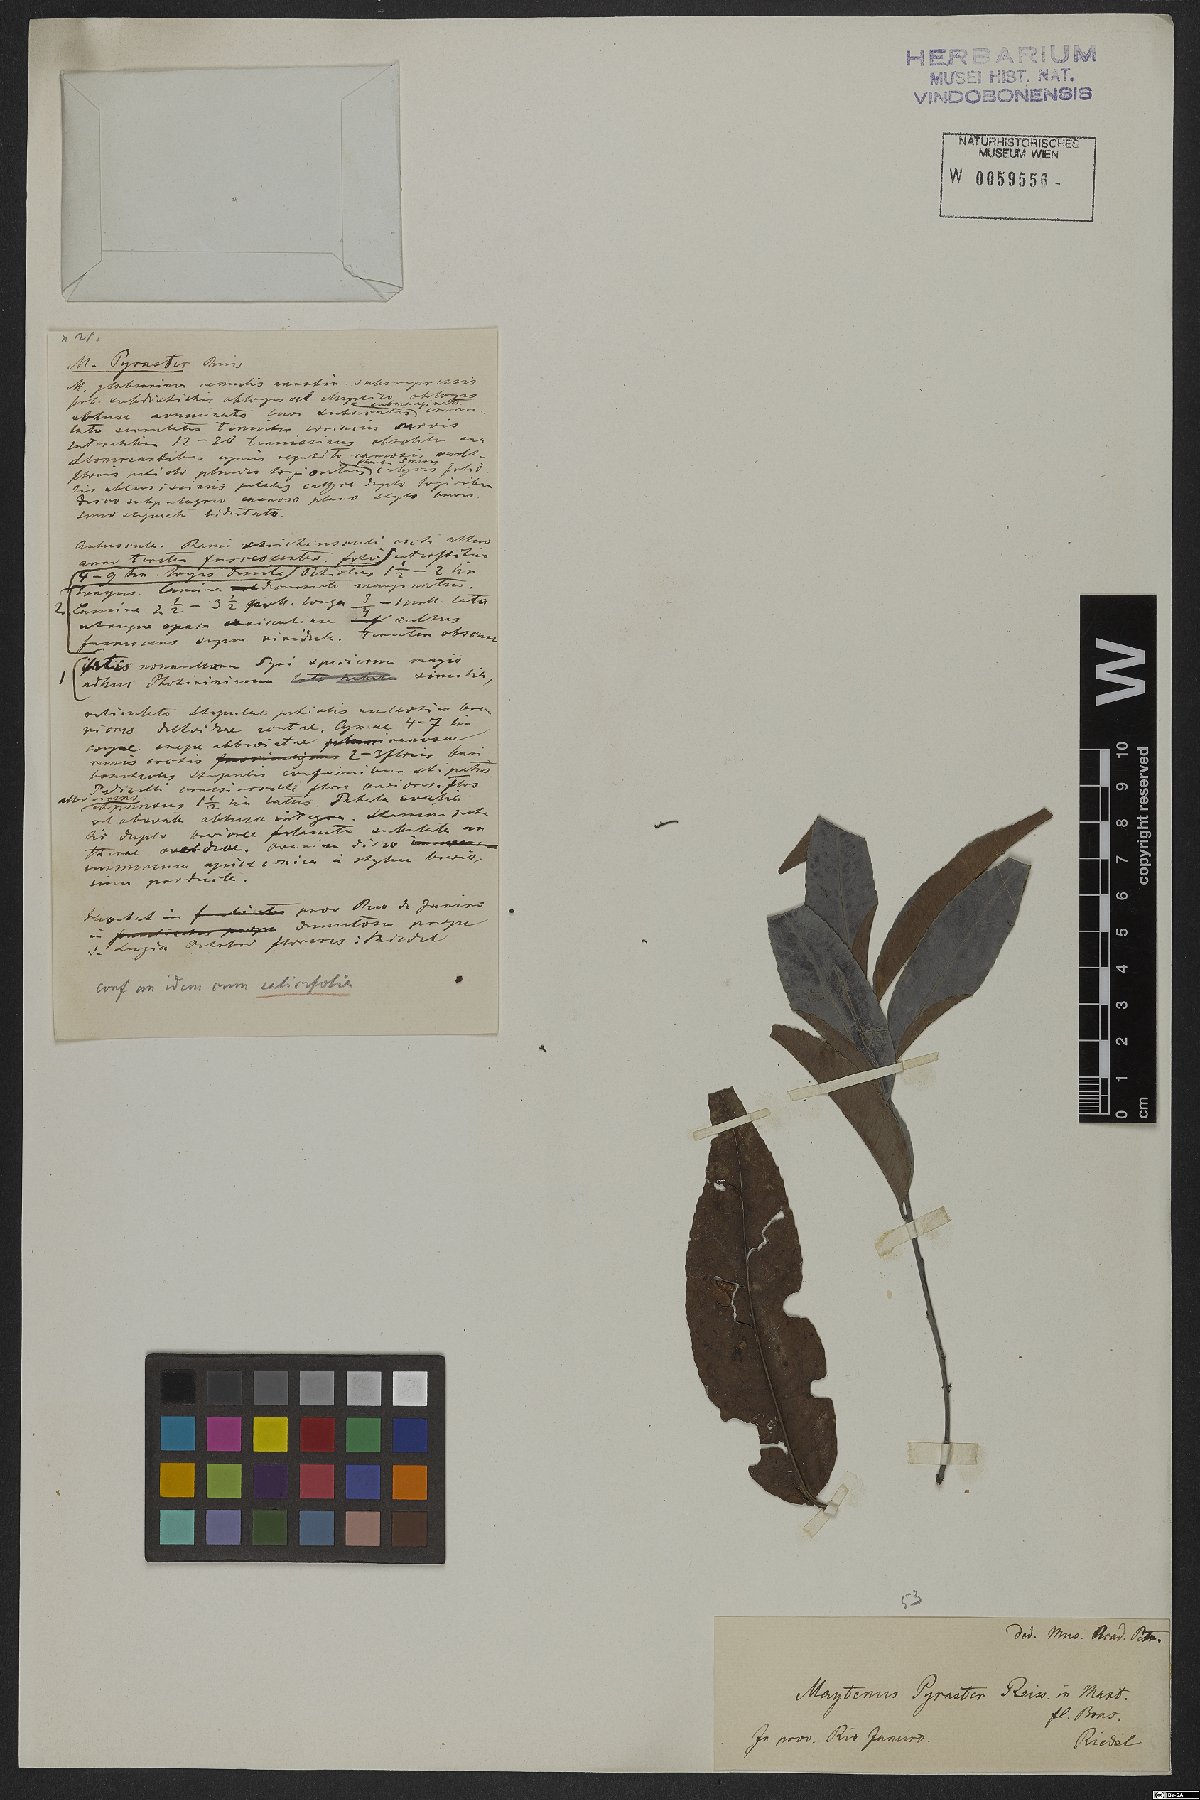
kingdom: Plantae
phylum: Tracheophyta
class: Magnoliopsida
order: Celastrales
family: Celastraceae
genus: Maytenus
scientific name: Maytenus pyraster
